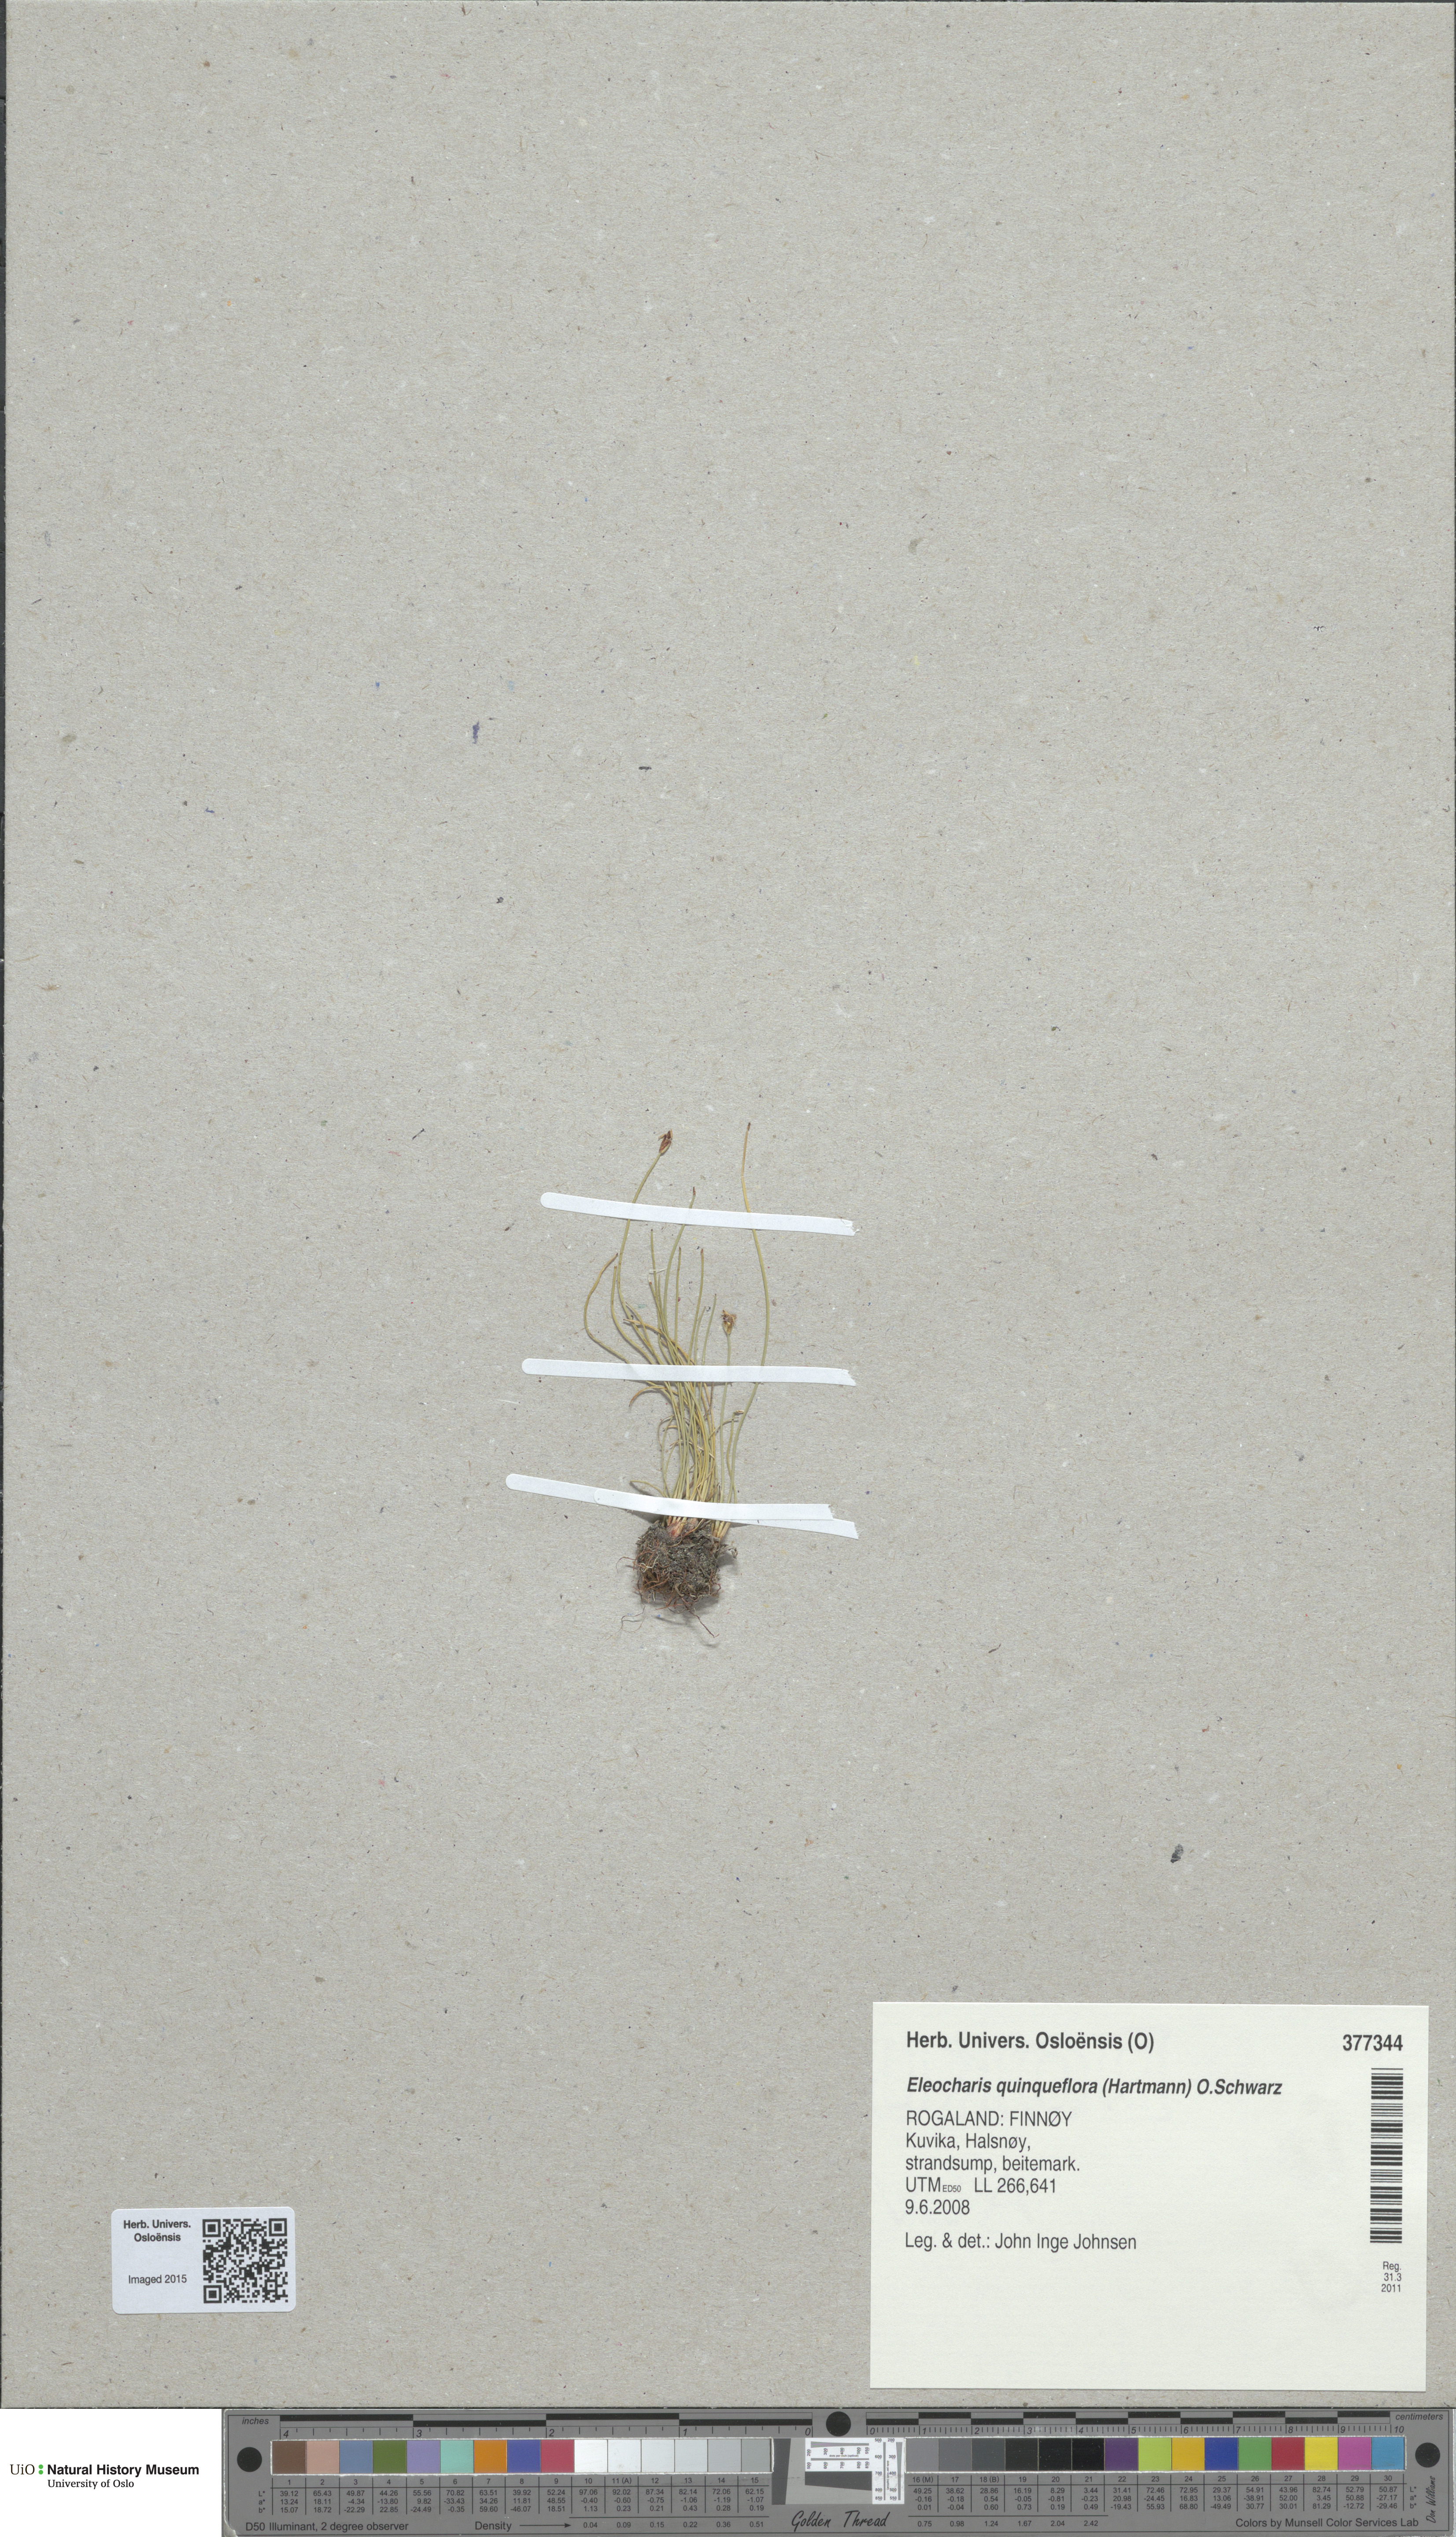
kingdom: Plantae
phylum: Tracheophyta
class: Liliopsida
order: Poales
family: Cyperaceae
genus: Eleocharis
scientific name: Eleocharis quinqueflora
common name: Few-flowered spike-rush
